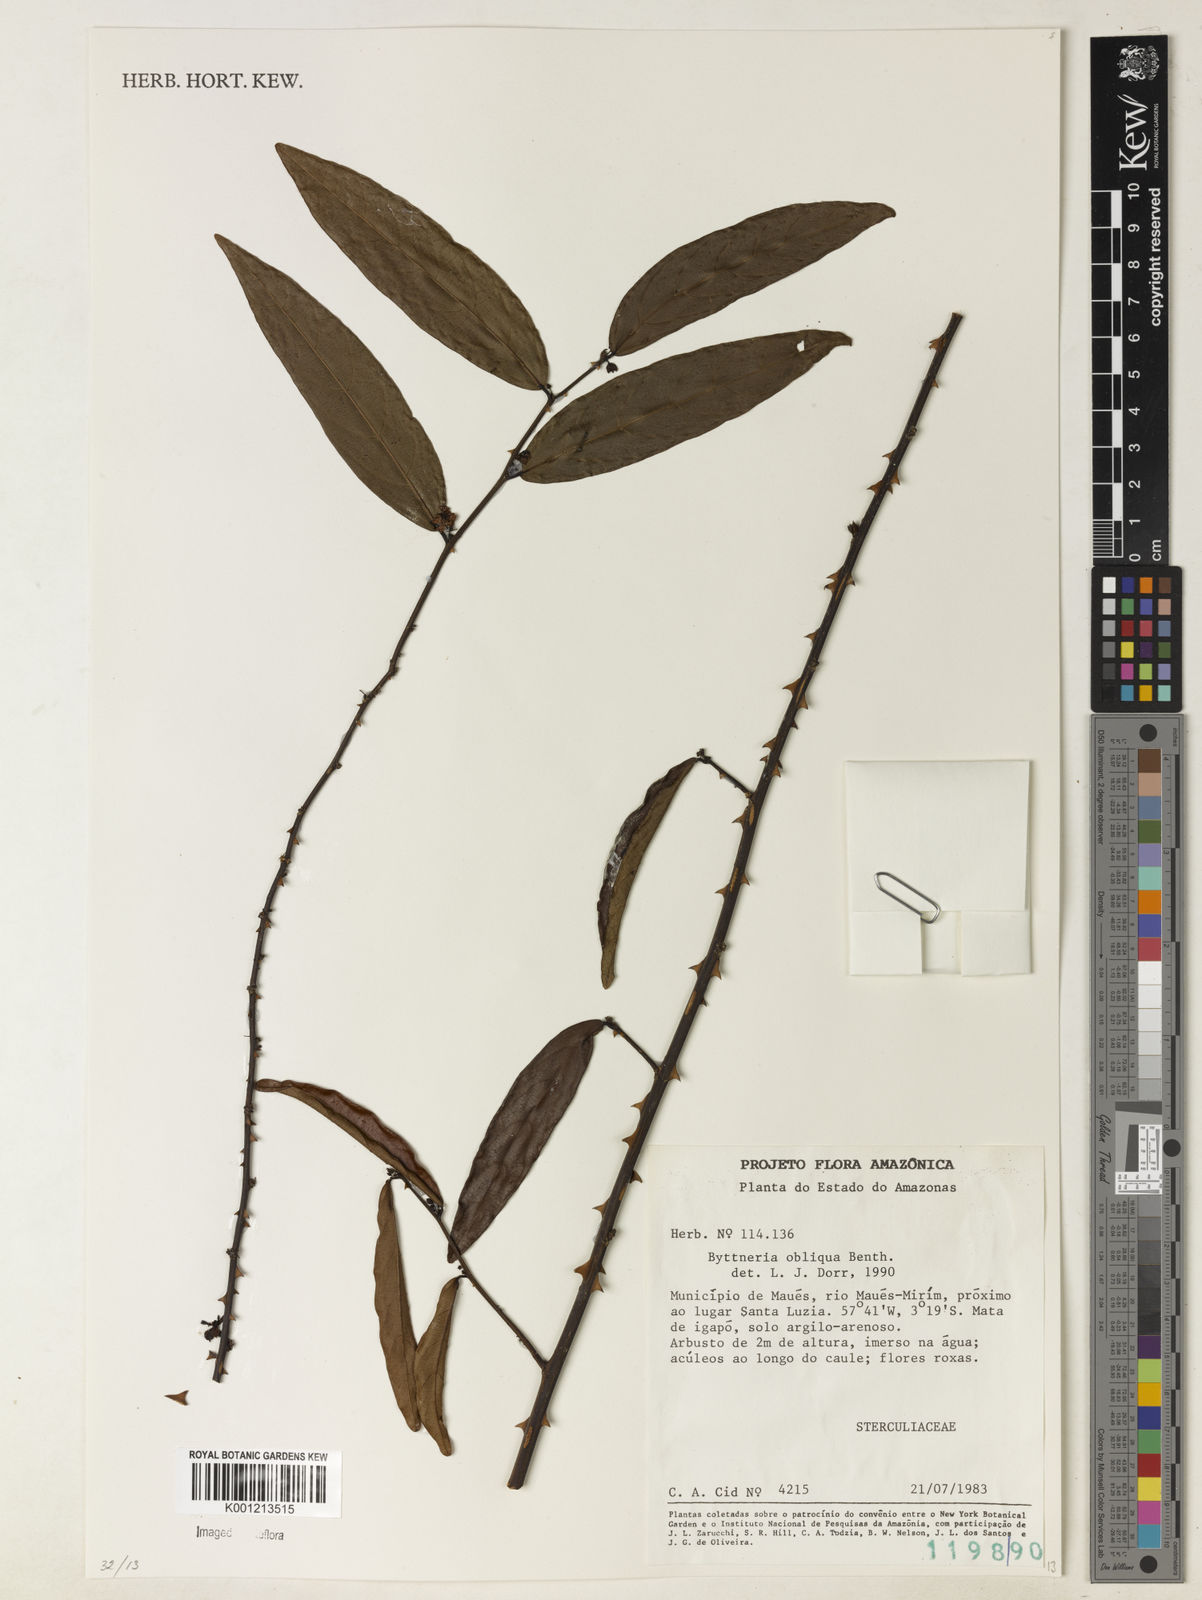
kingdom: Plantae
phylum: Tracheophyta
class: Magnoliopsida
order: Malvales
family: Malvaceae
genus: Byttneria
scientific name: Byttneria obliqua
